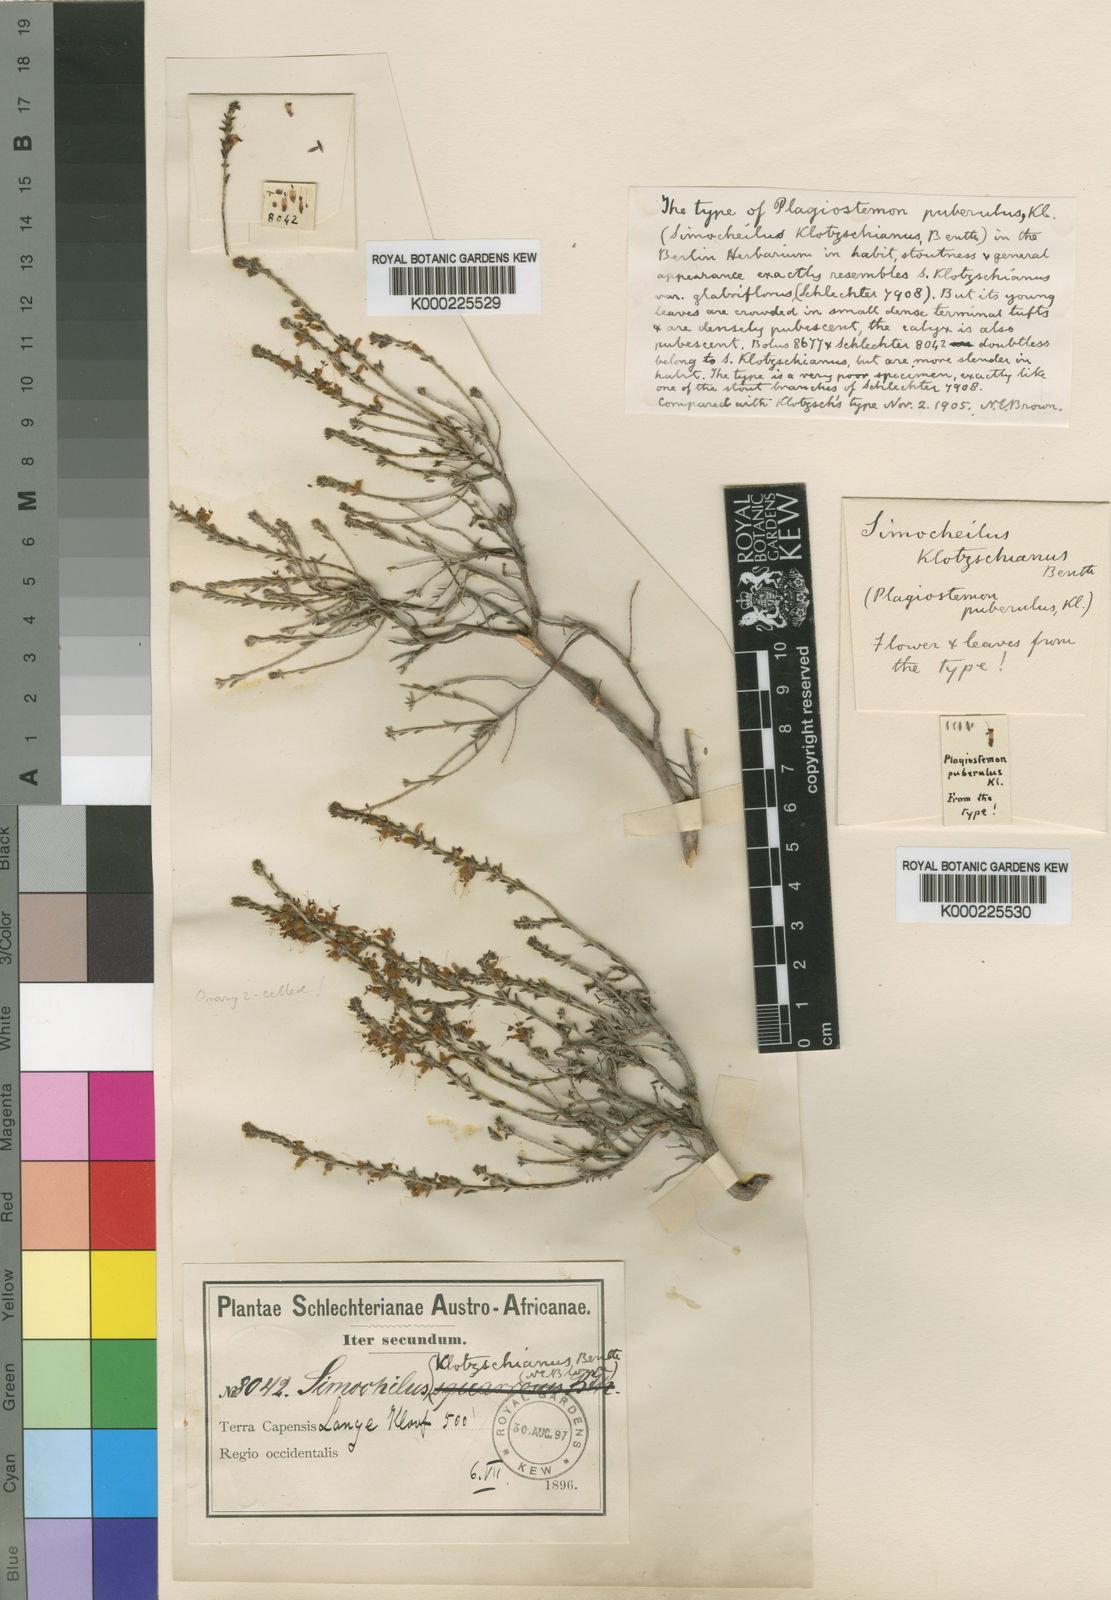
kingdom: Plantae
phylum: Tracheophyta
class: Magnoliopsida
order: Ericales
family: Ericaceae
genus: Erica
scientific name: Erica glabra
